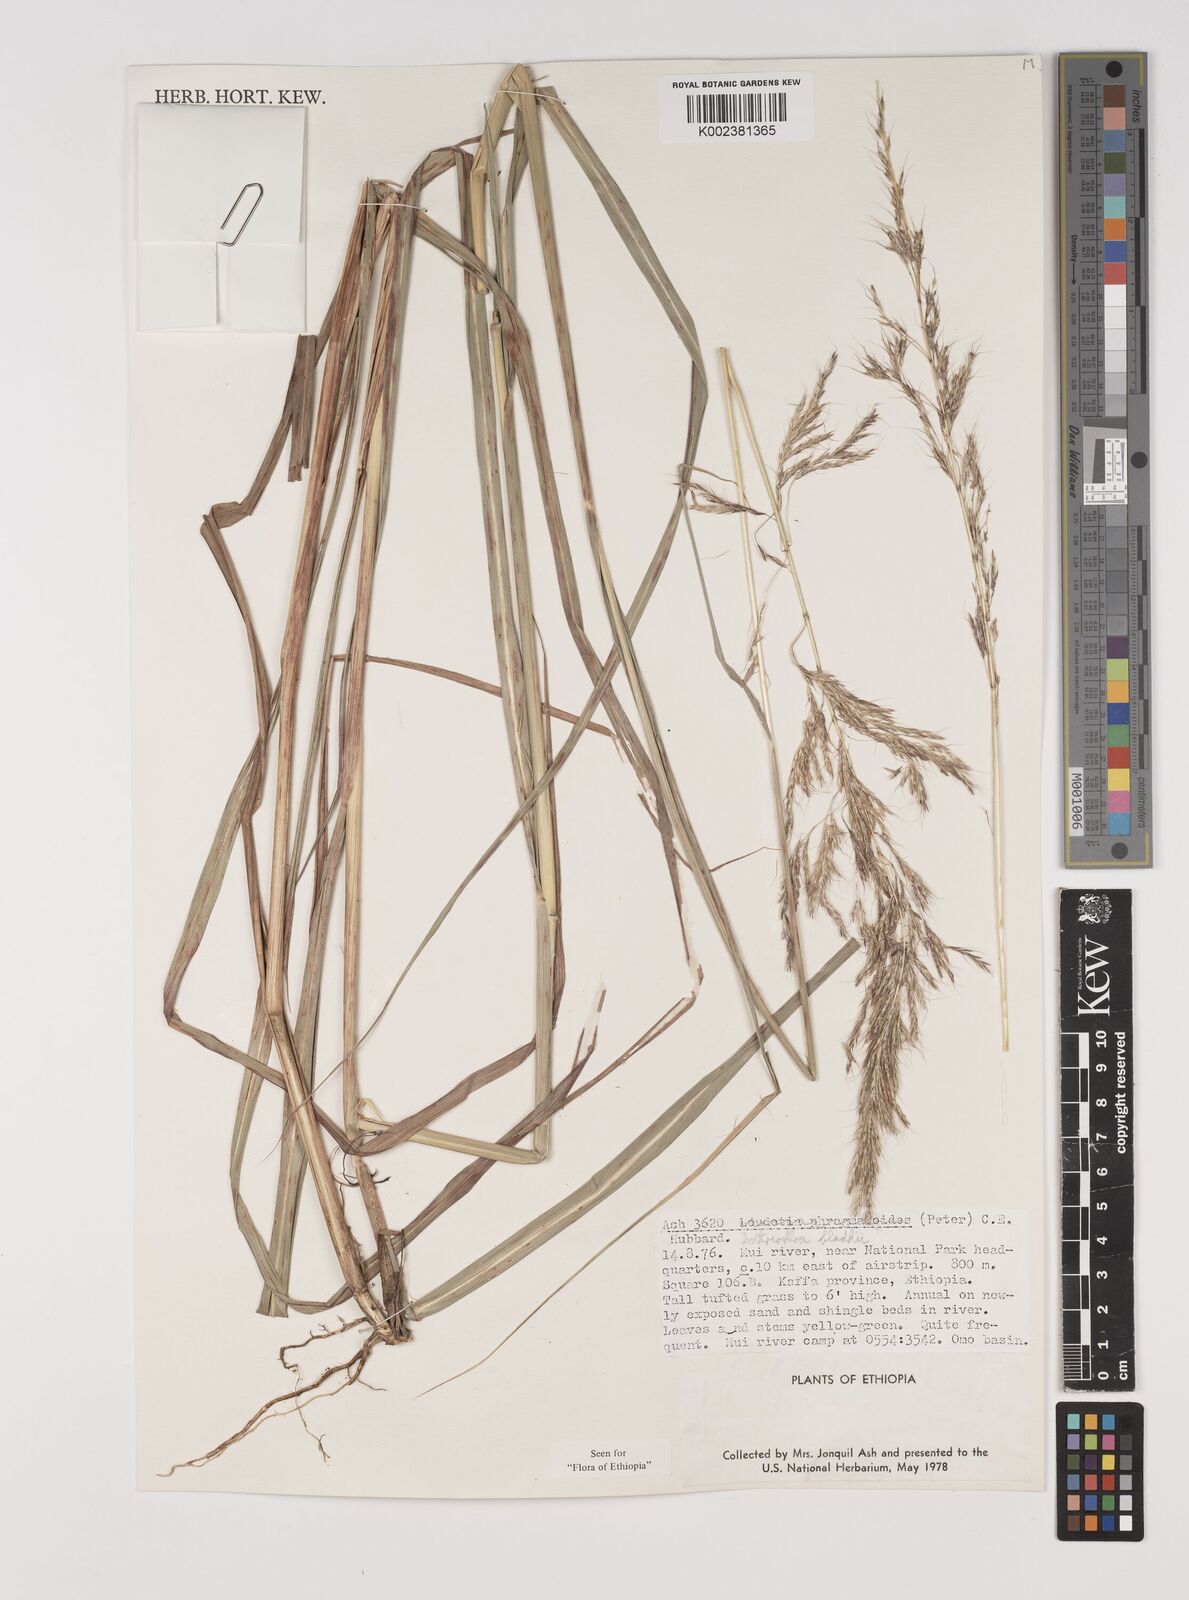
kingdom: Plantae
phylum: Tracheophyta
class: Liliopsida
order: Poales
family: Poaceae
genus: Bothriochloa
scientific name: Bothriochloa bladhii
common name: Caucasian bluestem
